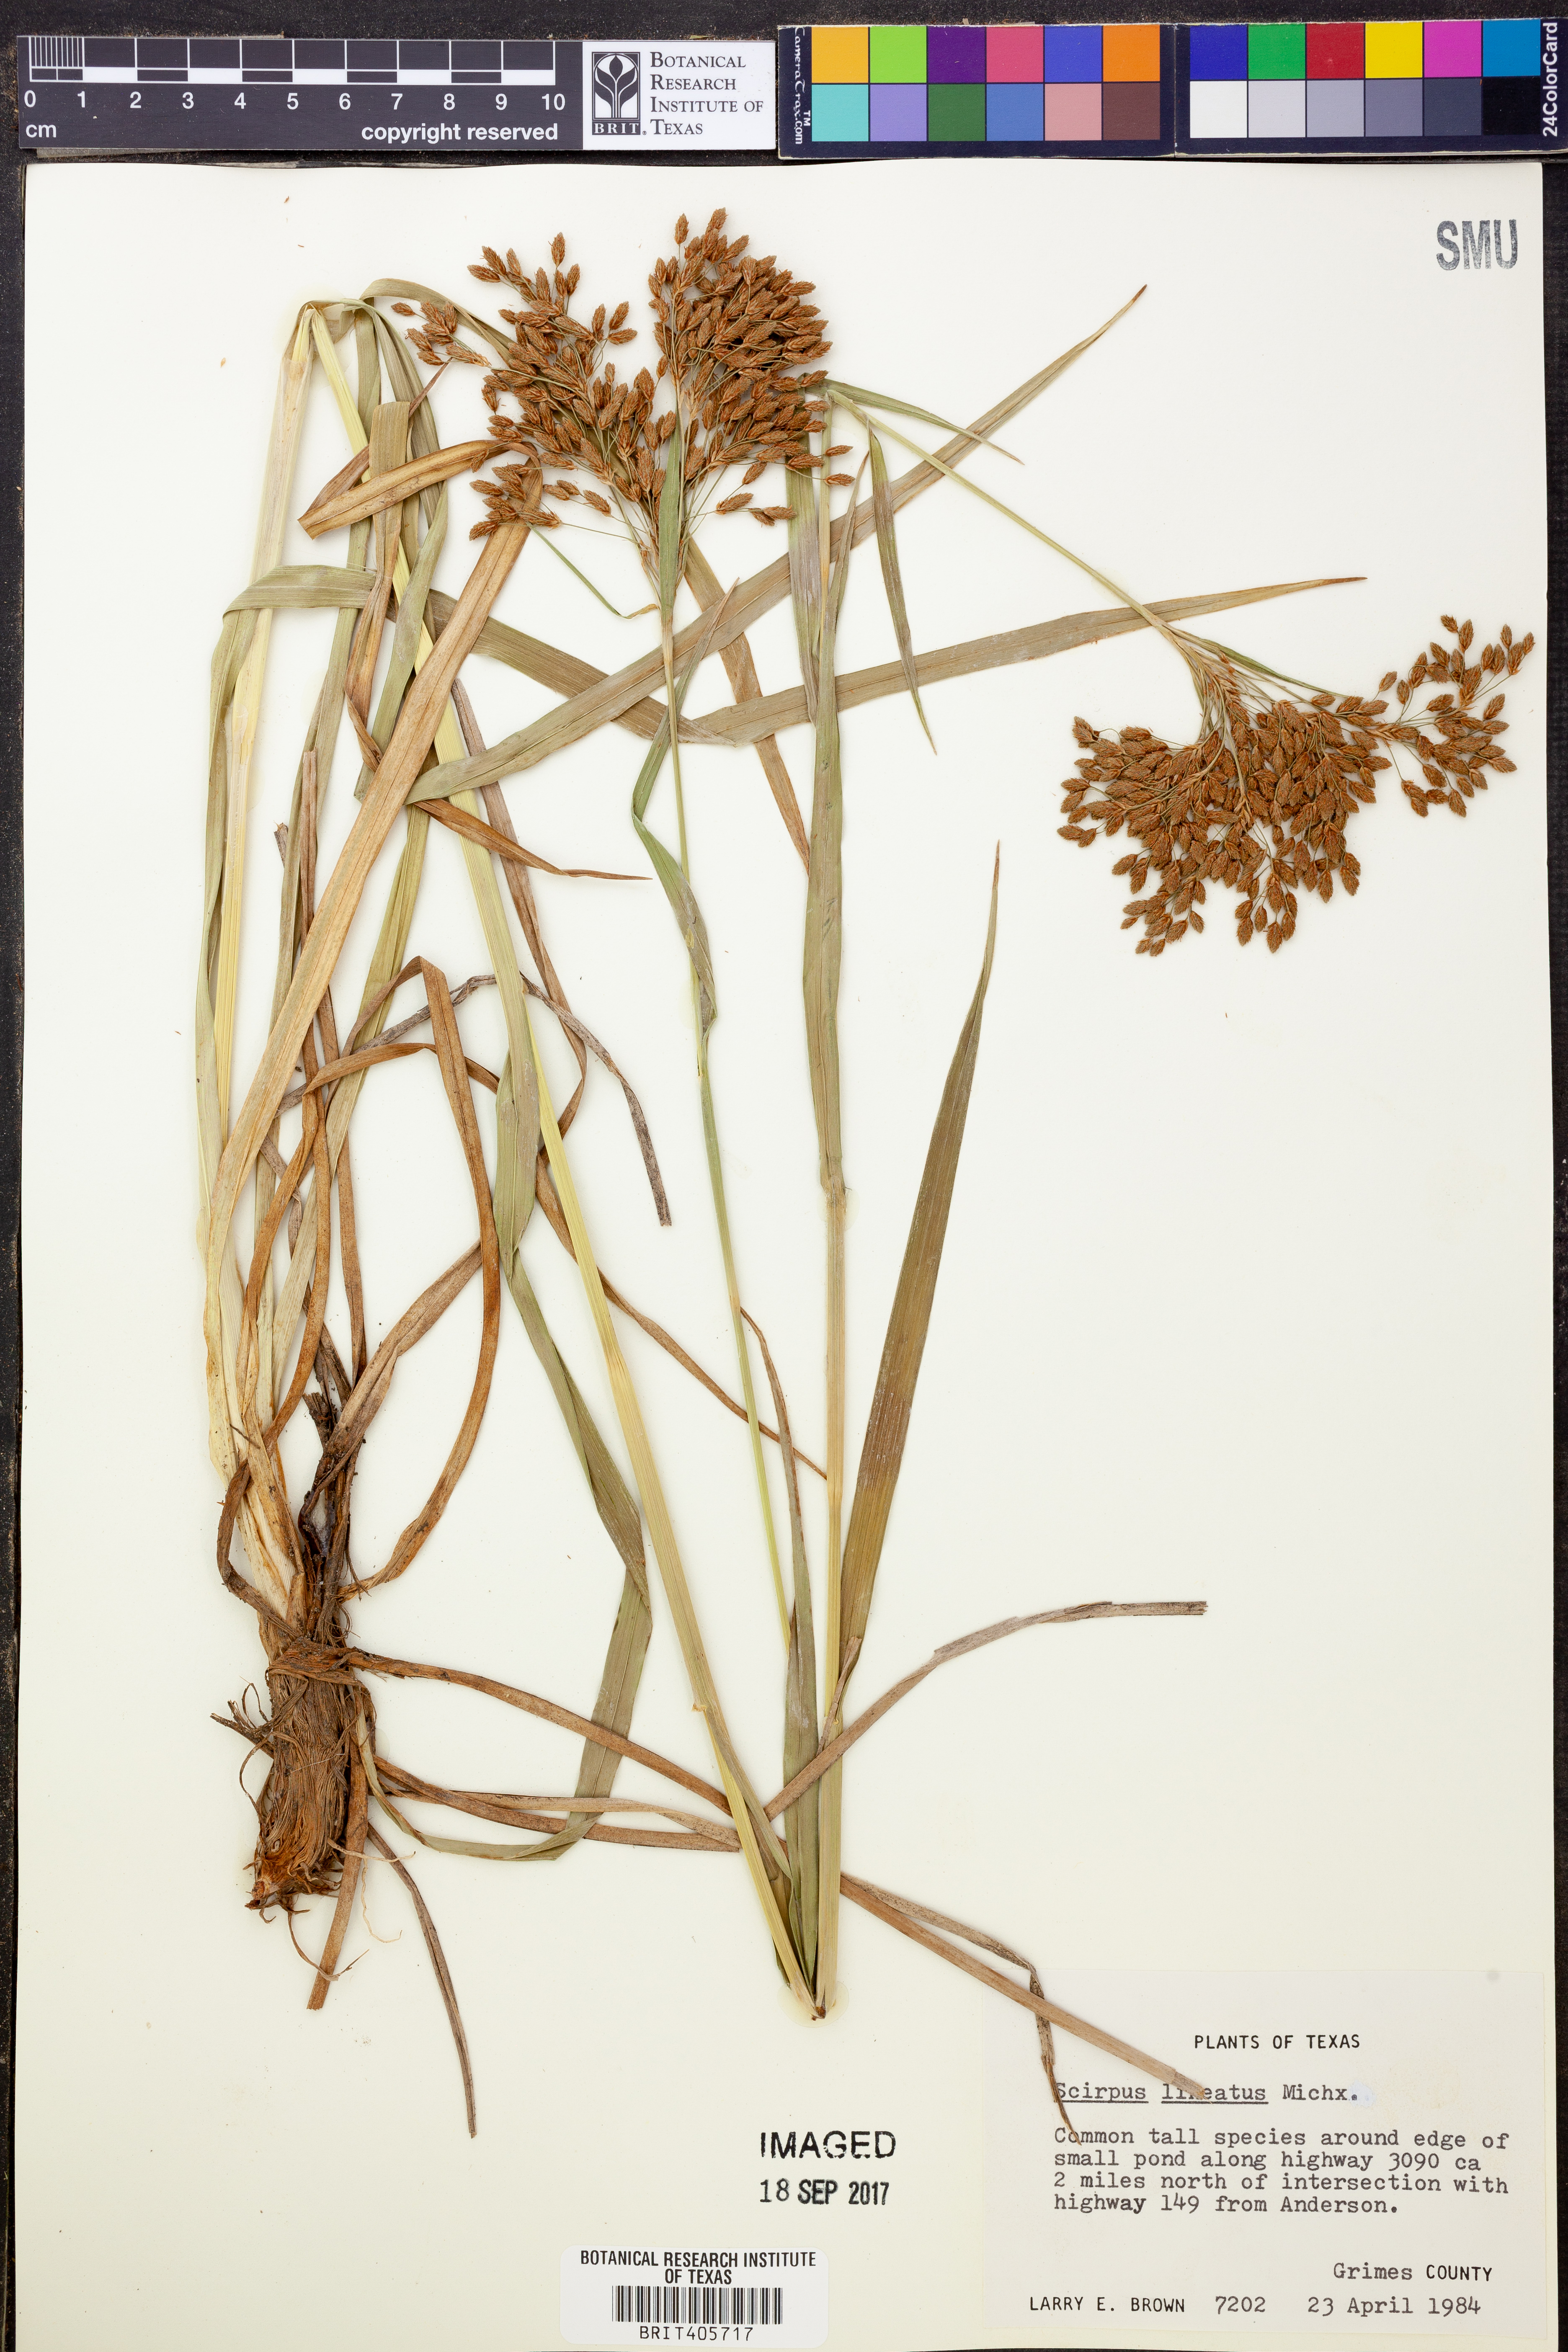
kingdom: Plantae
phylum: Tracheophyta
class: Liliopsida
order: Poales
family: Cyperaceae
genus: Scirpus
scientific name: Scirpus lineatus
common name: Drooping bulrush
